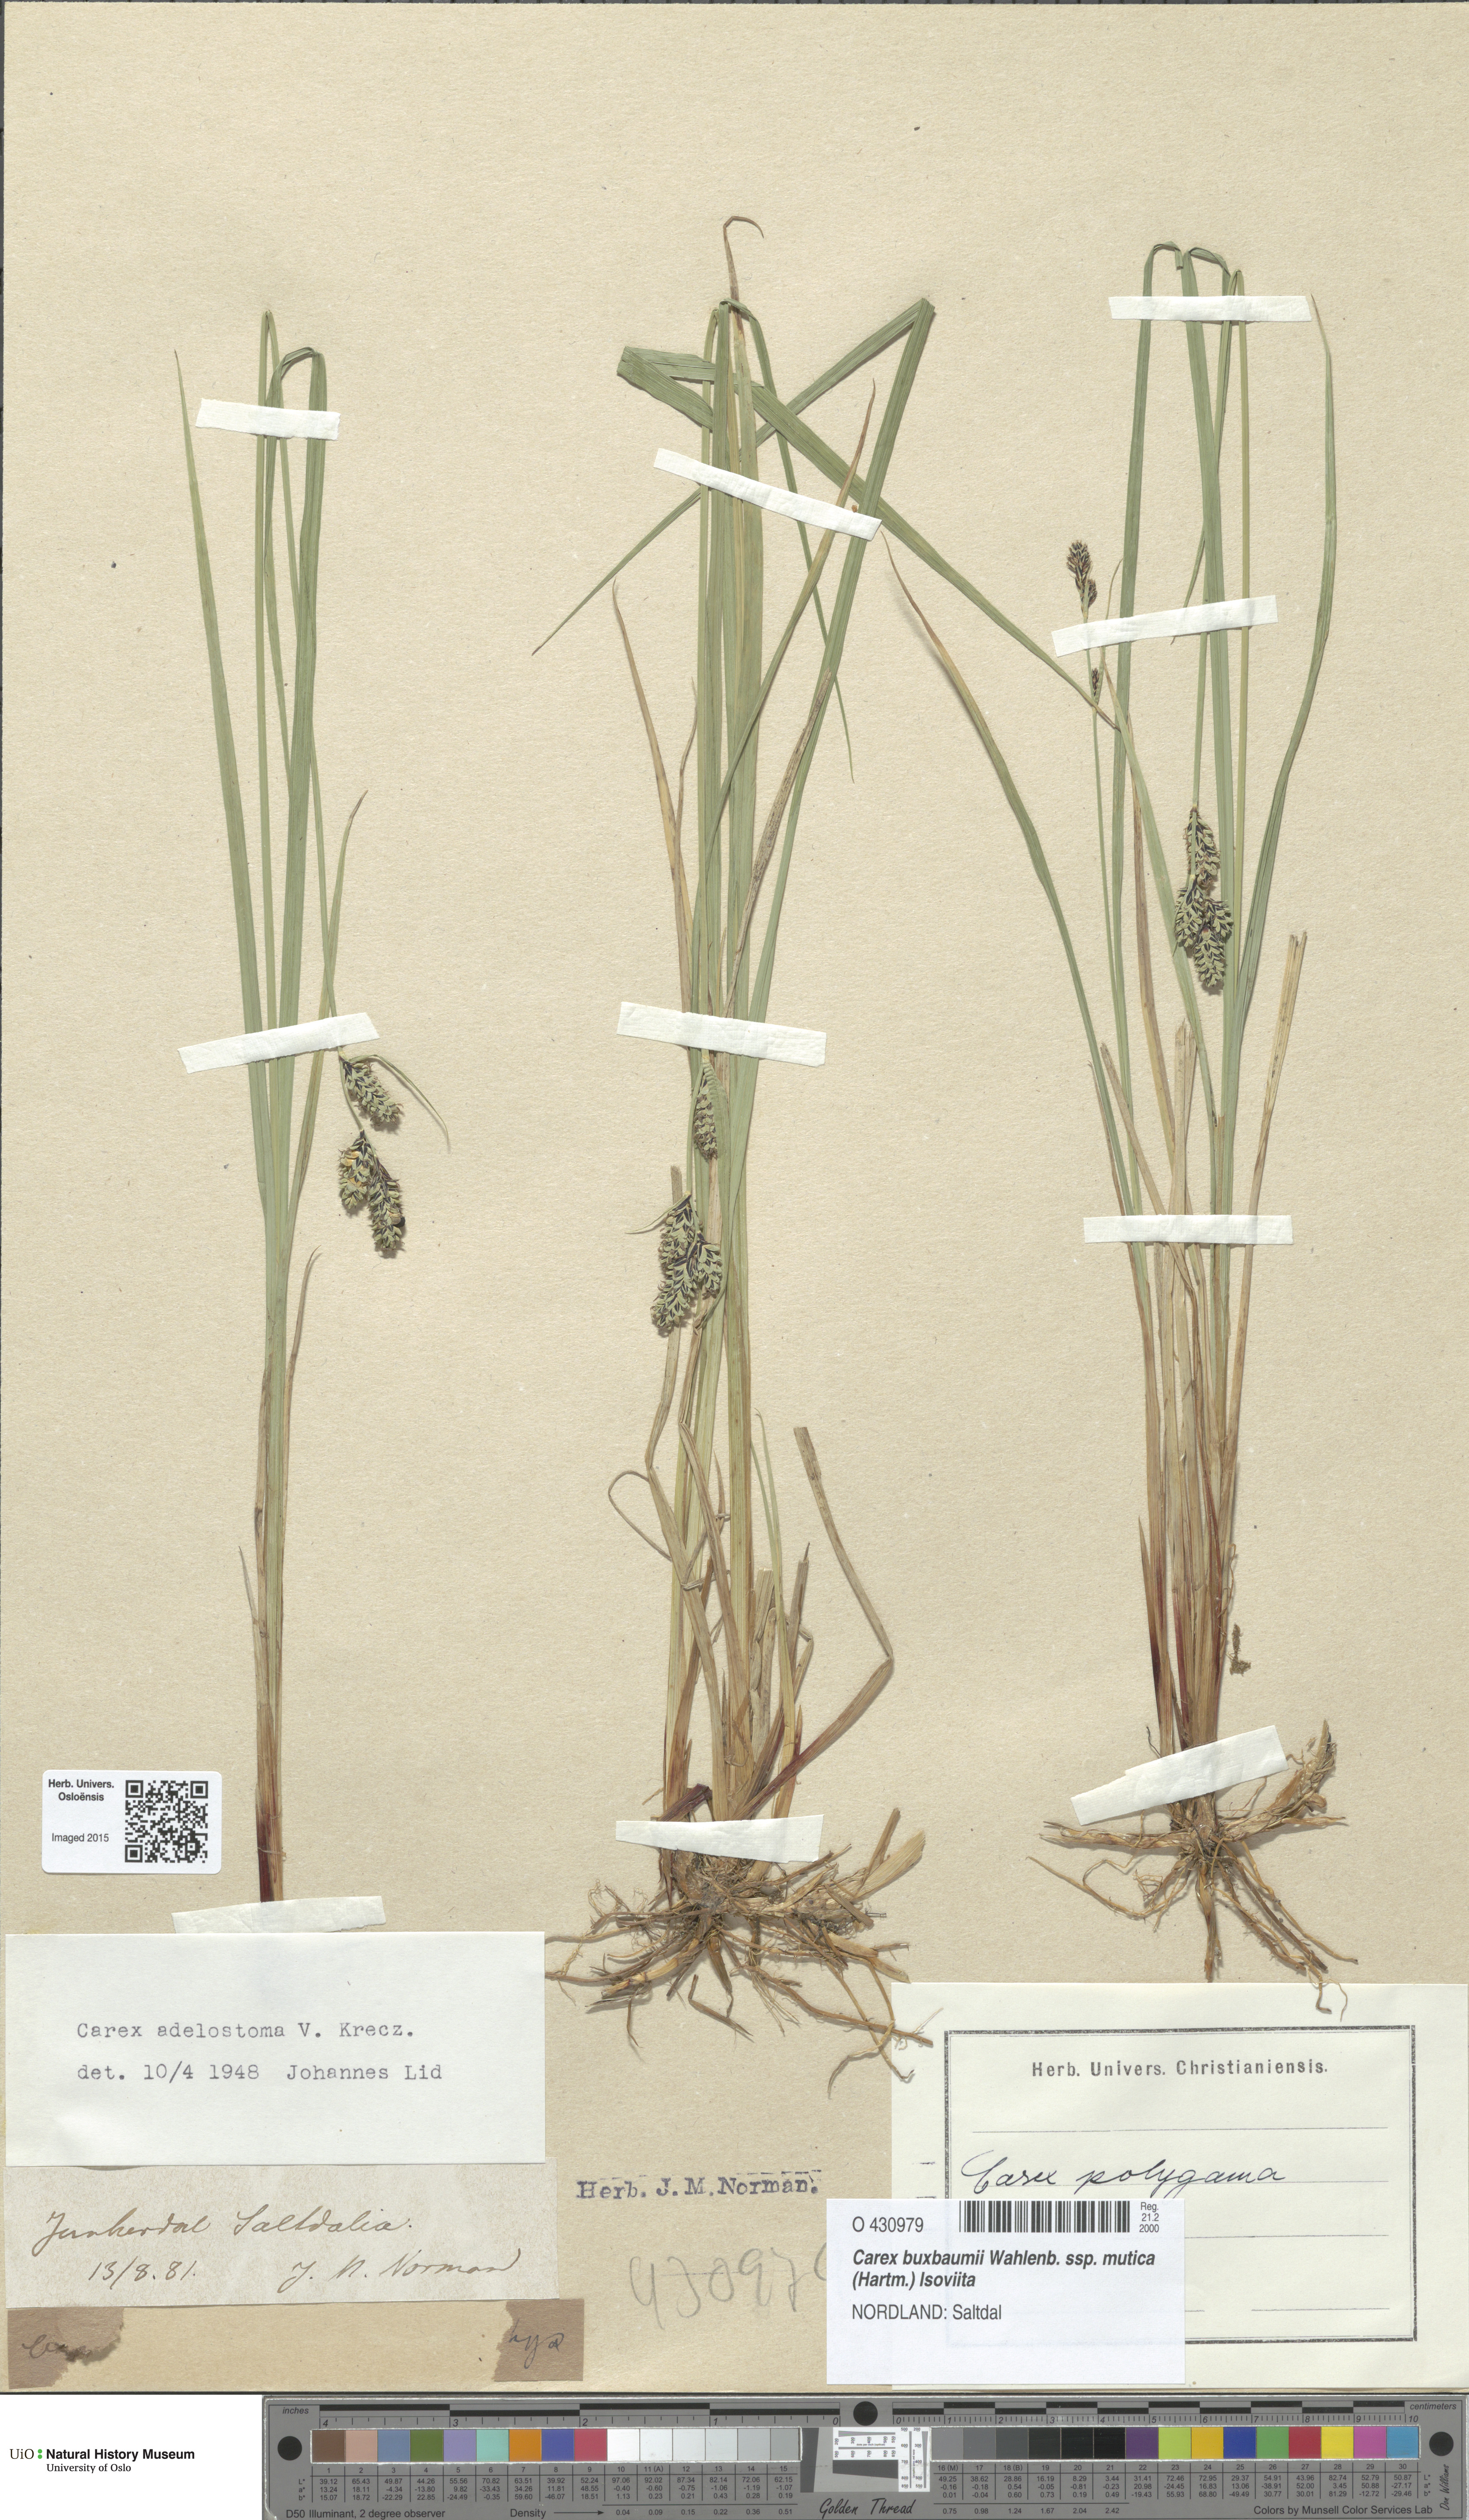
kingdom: Plantae
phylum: Tracheophyta
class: Liliopsida
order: Poales
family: Cyperaceae
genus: Carex
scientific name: Carex adelostoma
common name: Circumpolar sedge
